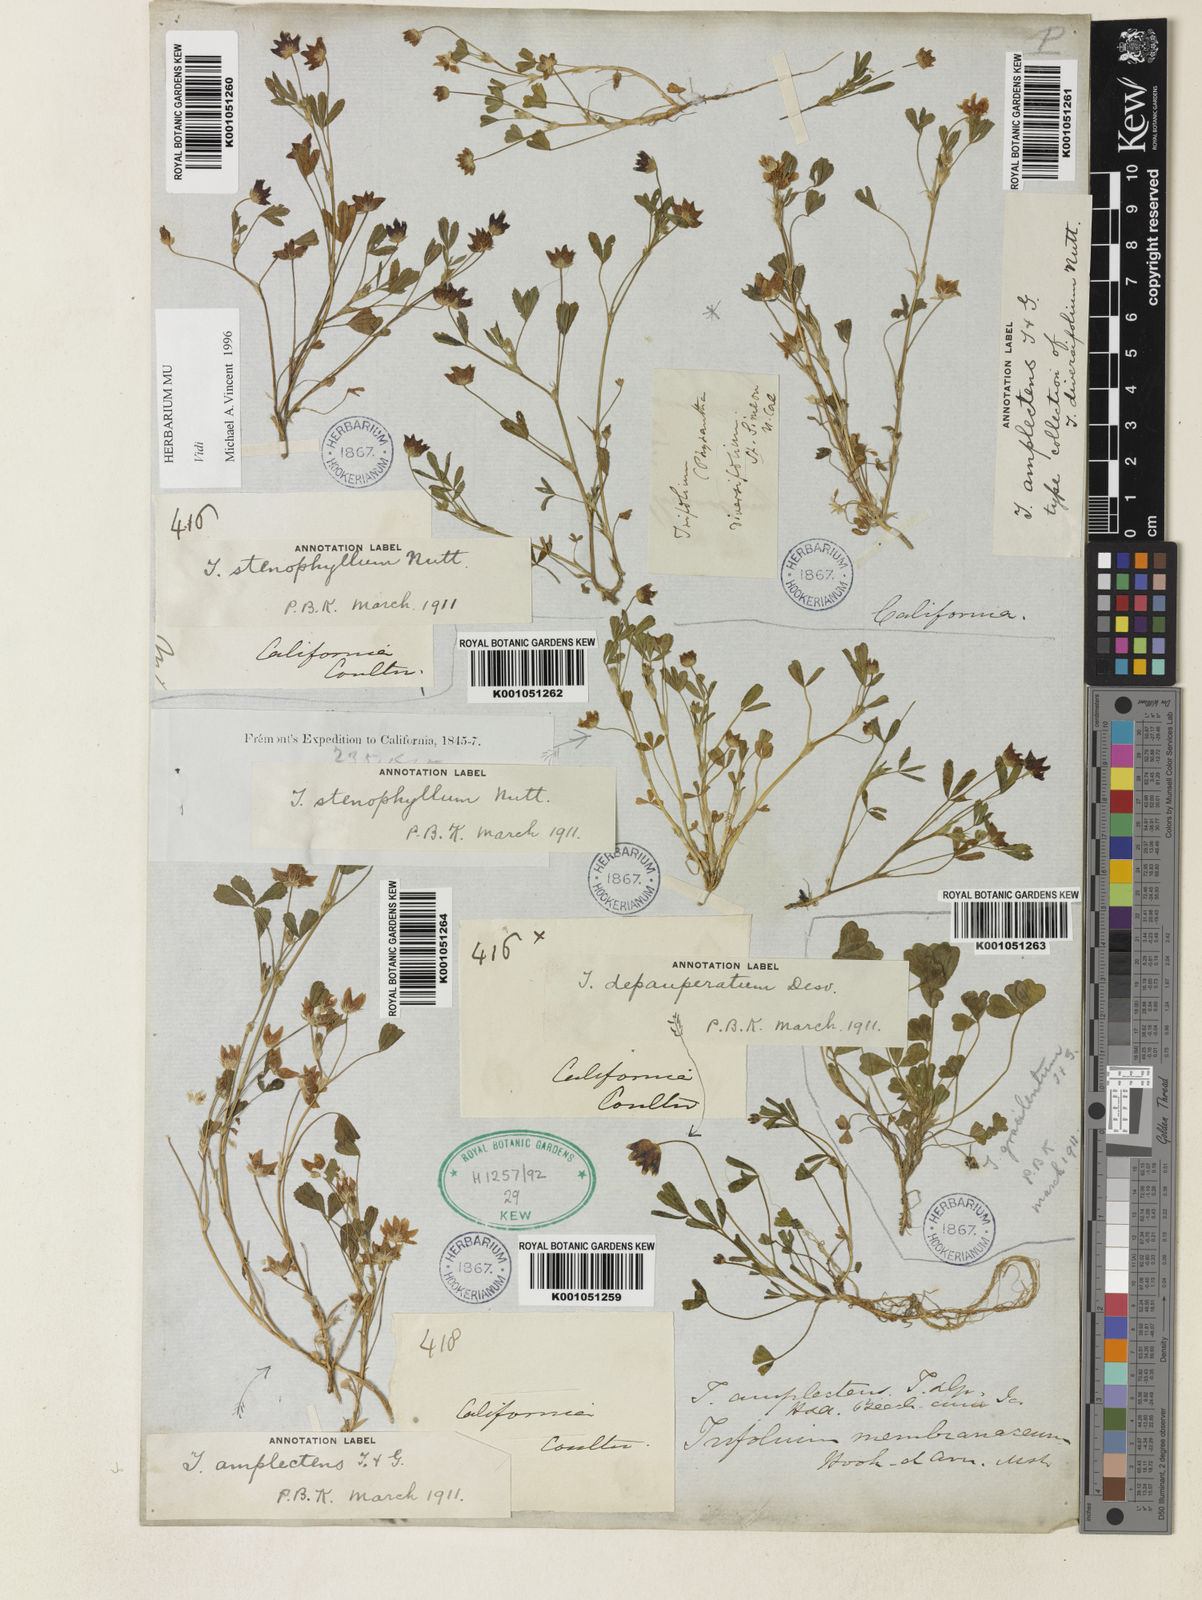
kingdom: Plantae
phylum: Tracheophyta
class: Magnoliopsida
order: Fabales
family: Fabaceae
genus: Trifolium
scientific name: Trifolium depauperatum
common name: Poverty clover
